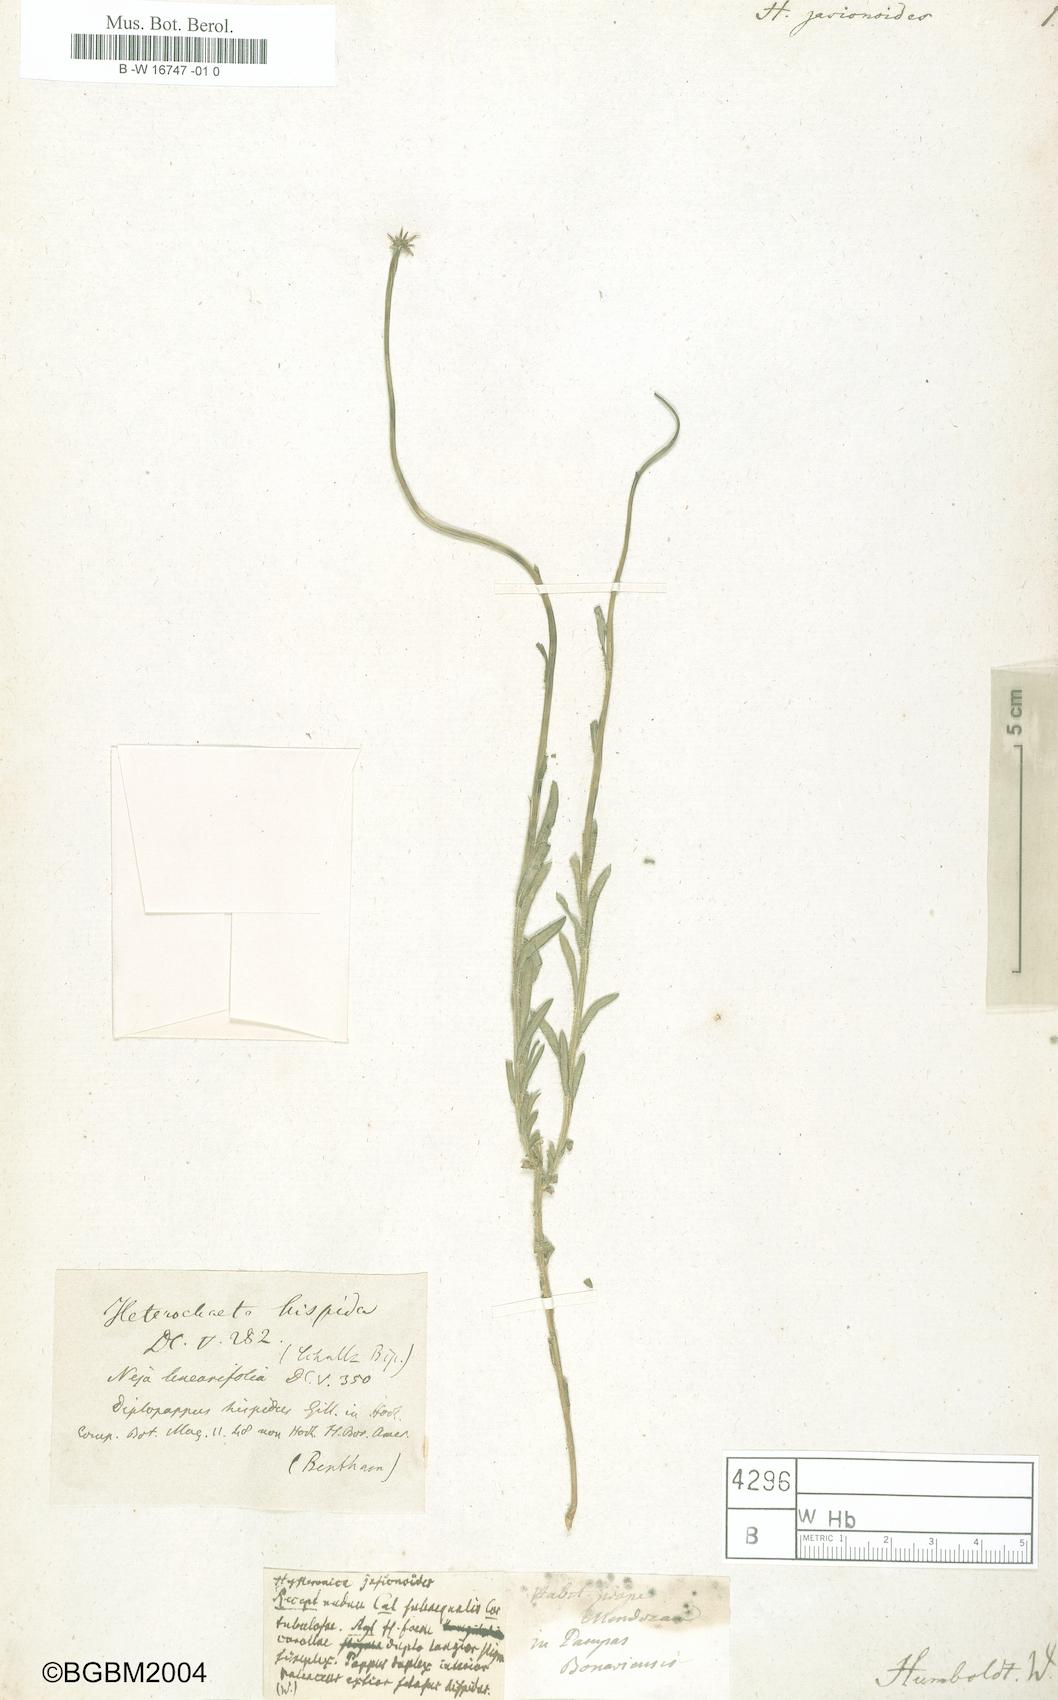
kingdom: Plantae
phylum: Tracheophyta
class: Magnoliopsida
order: Asterales
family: Asteraceae
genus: Hysterionica
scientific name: Hysterionica jasionoides
